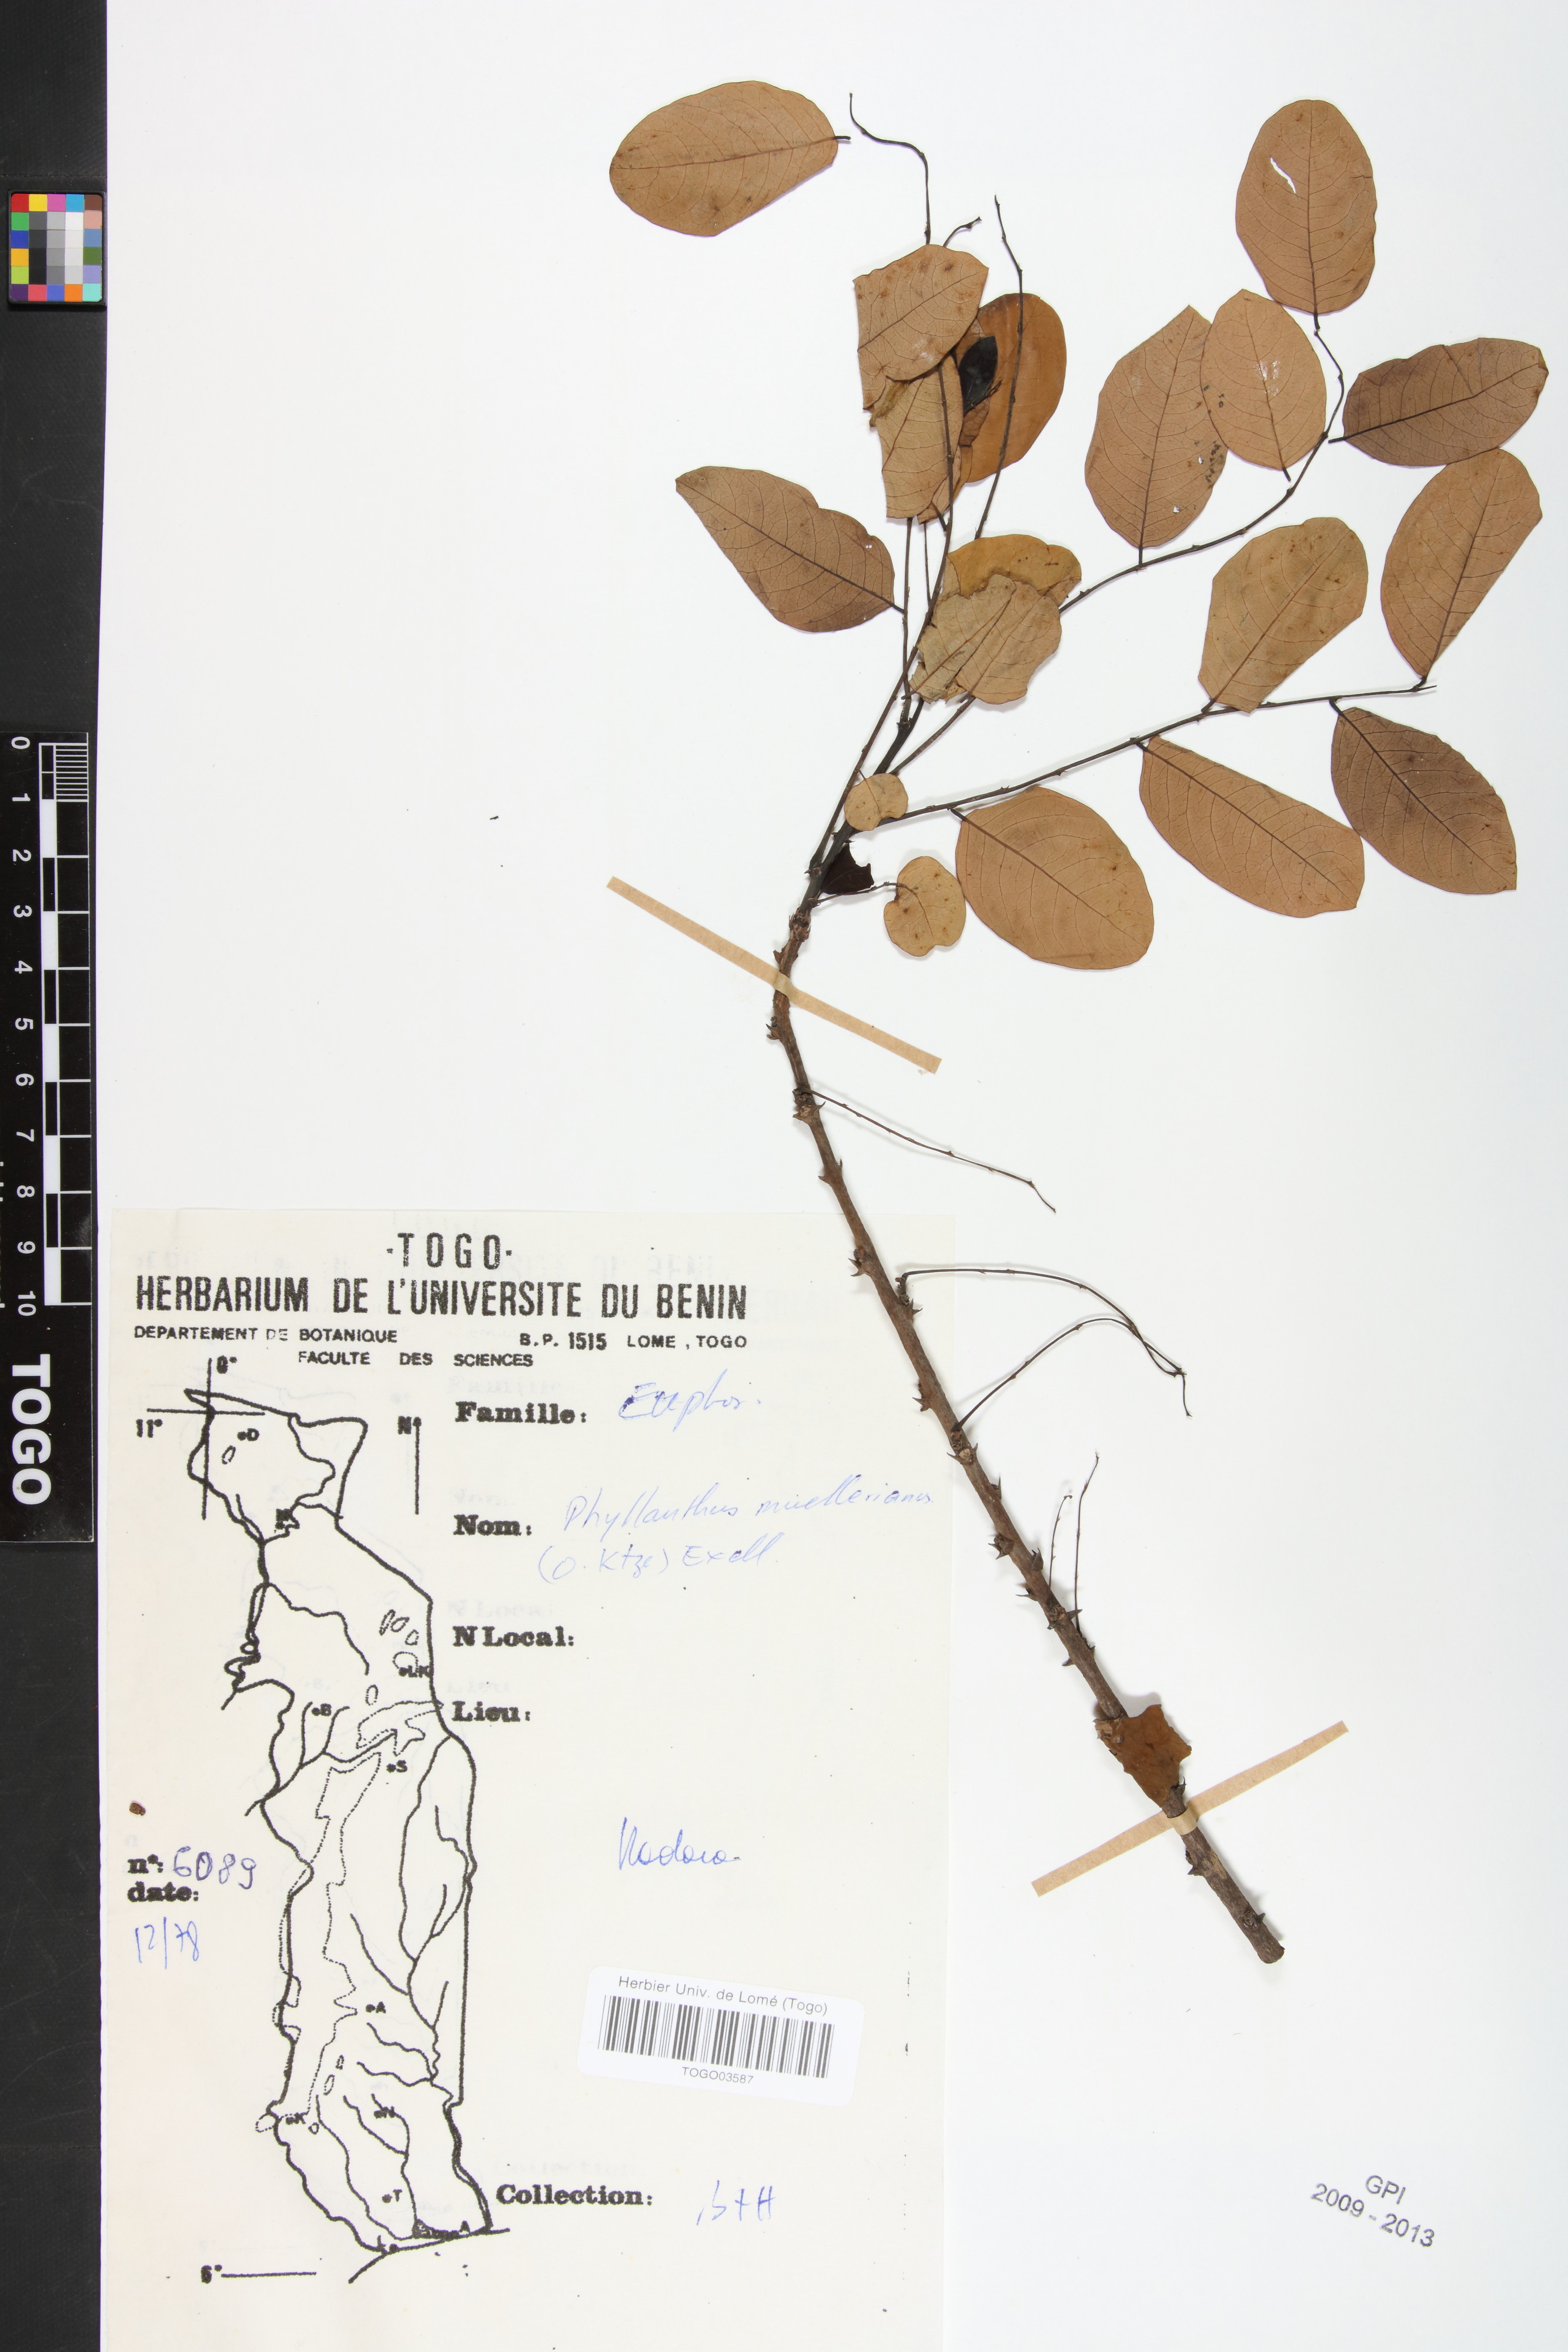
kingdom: Plantae
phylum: Tracheophyta
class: Magnoliopsida
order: Malpighiales
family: Phyllanthaceae
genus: Phyllanthus
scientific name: Phyllanthus muellerianus
